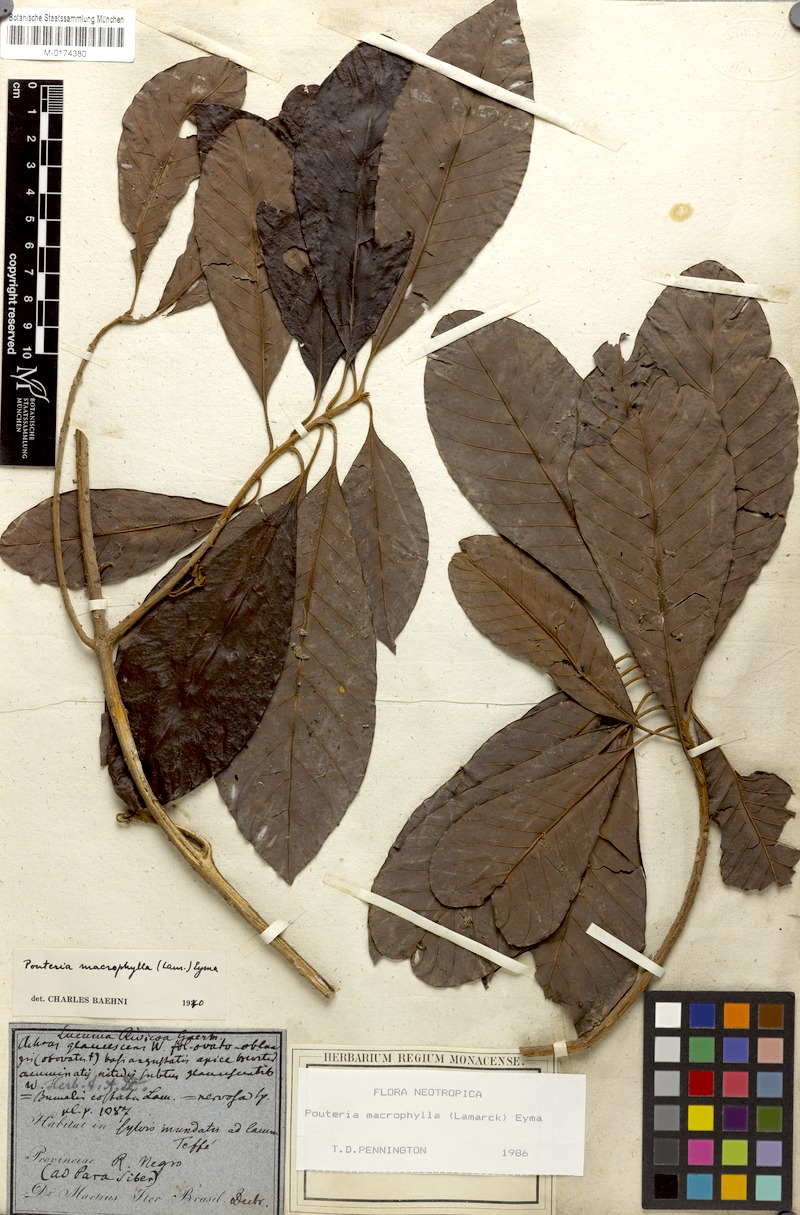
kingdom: Plantae
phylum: Tracheophyta
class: Magnoliopsida
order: Ericales
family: Sapotaceae
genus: Pouteria
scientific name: Pouteria macrophylla
